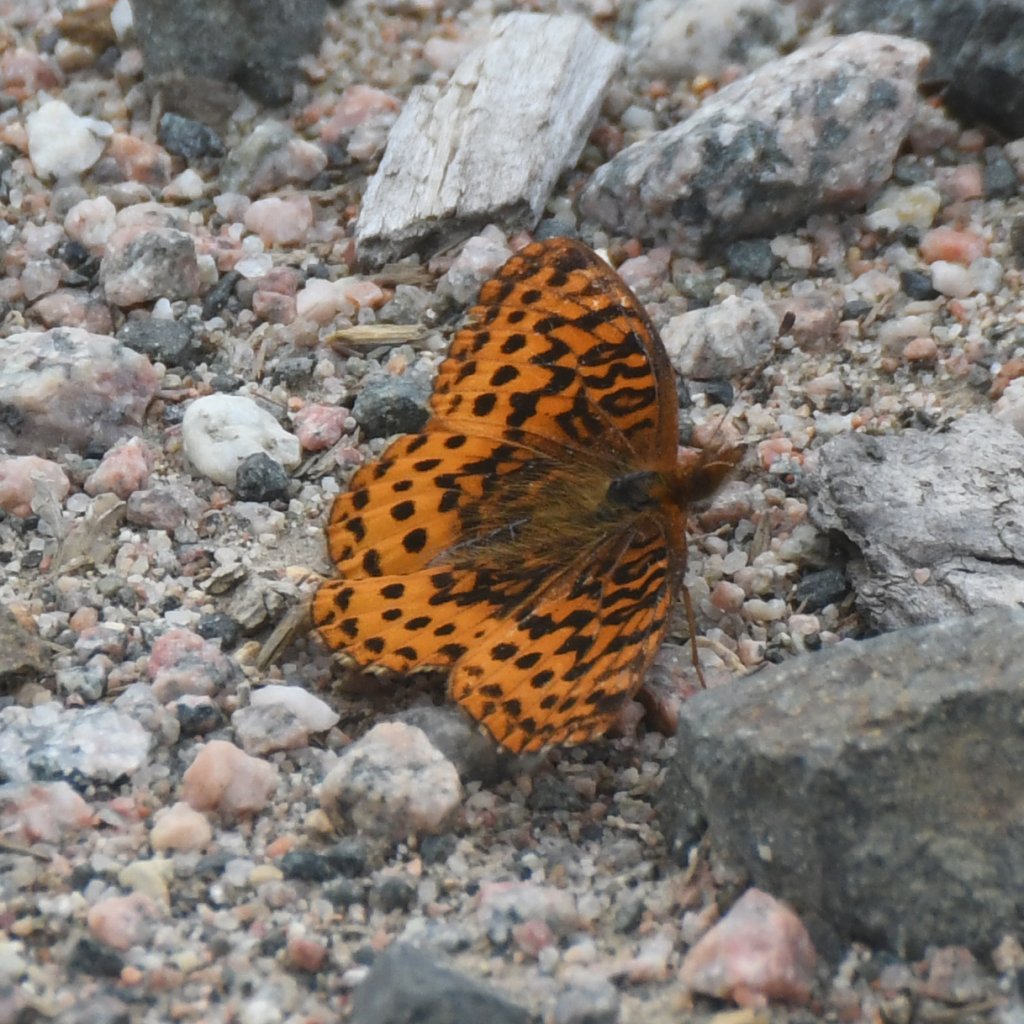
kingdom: Animalia
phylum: Arthropoda
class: Insecta
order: Lepidoptera
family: Nymphalidae
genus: Clossiana
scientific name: Clossiana toddi
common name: Meadow Fritillary
